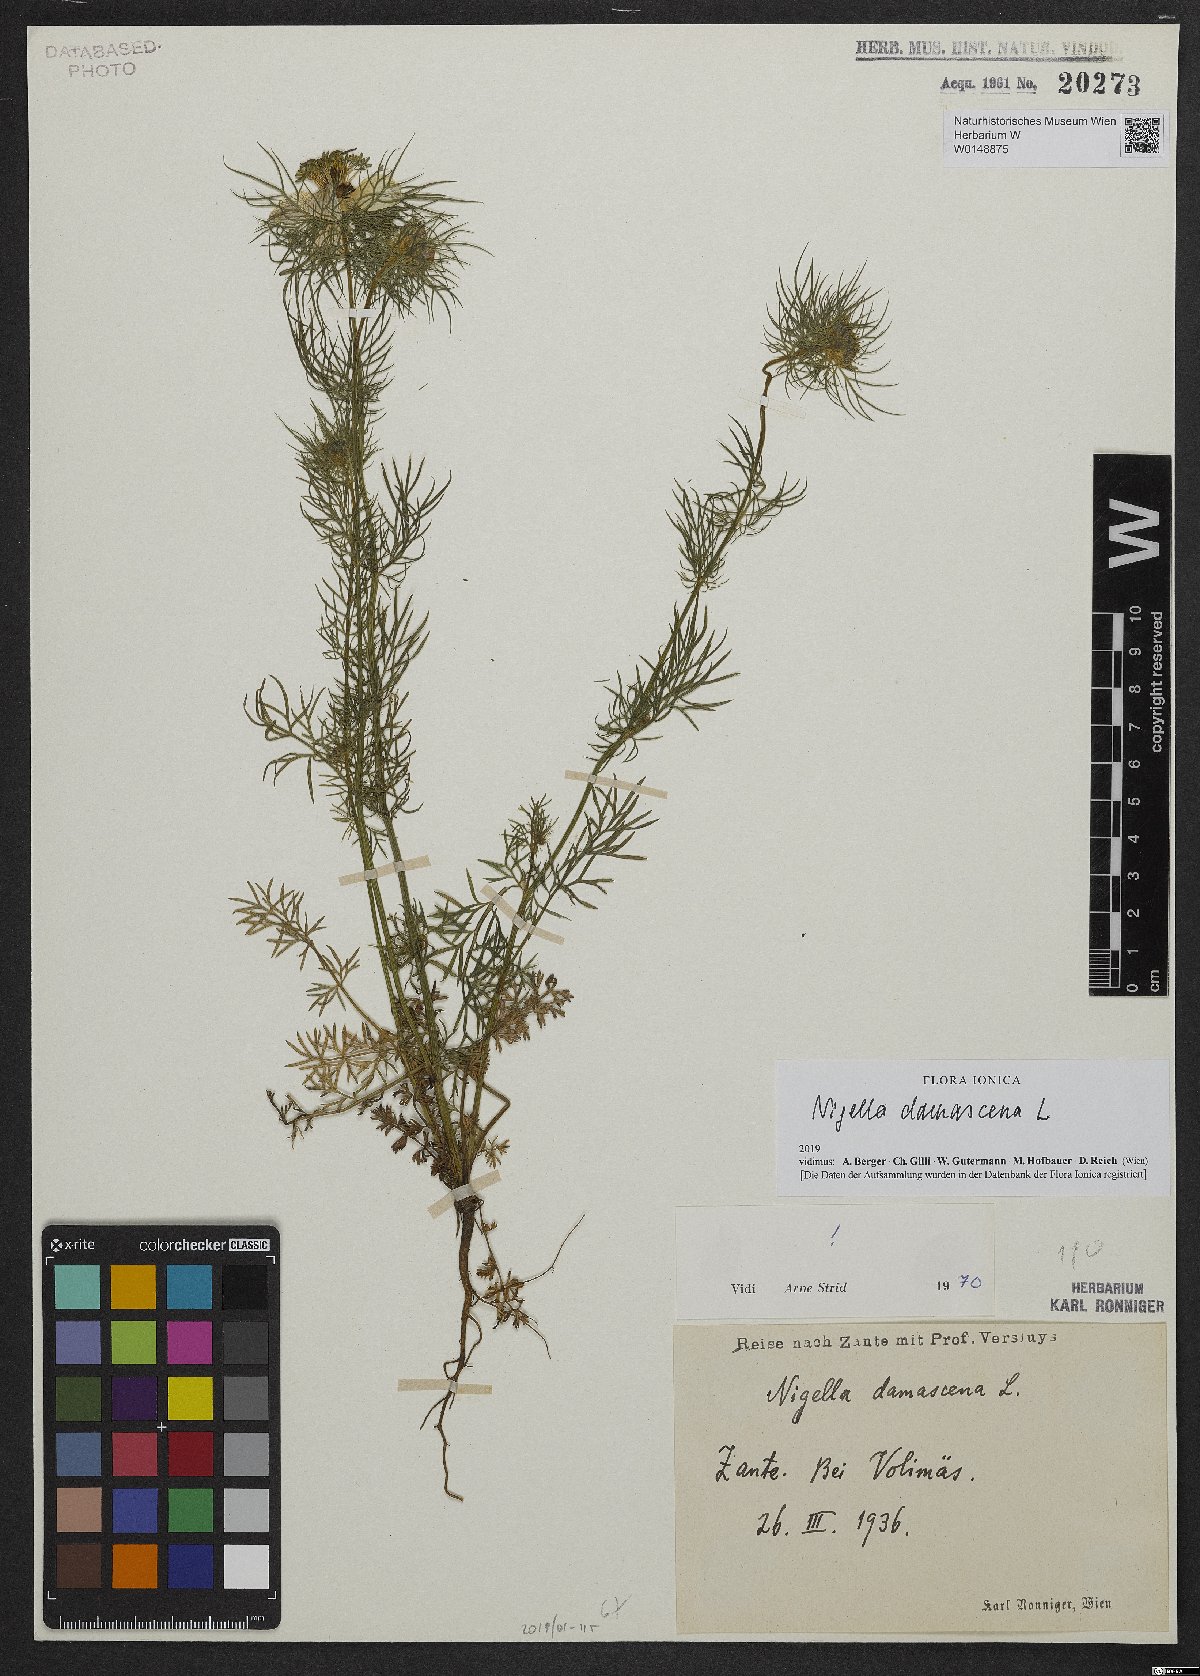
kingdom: Plantae
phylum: Tracheophyta
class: Magnoliopsida
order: Ranunculales
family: Ranunculaceae
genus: Nigella
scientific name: Nigella damascena
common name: Love-in-a-mist
